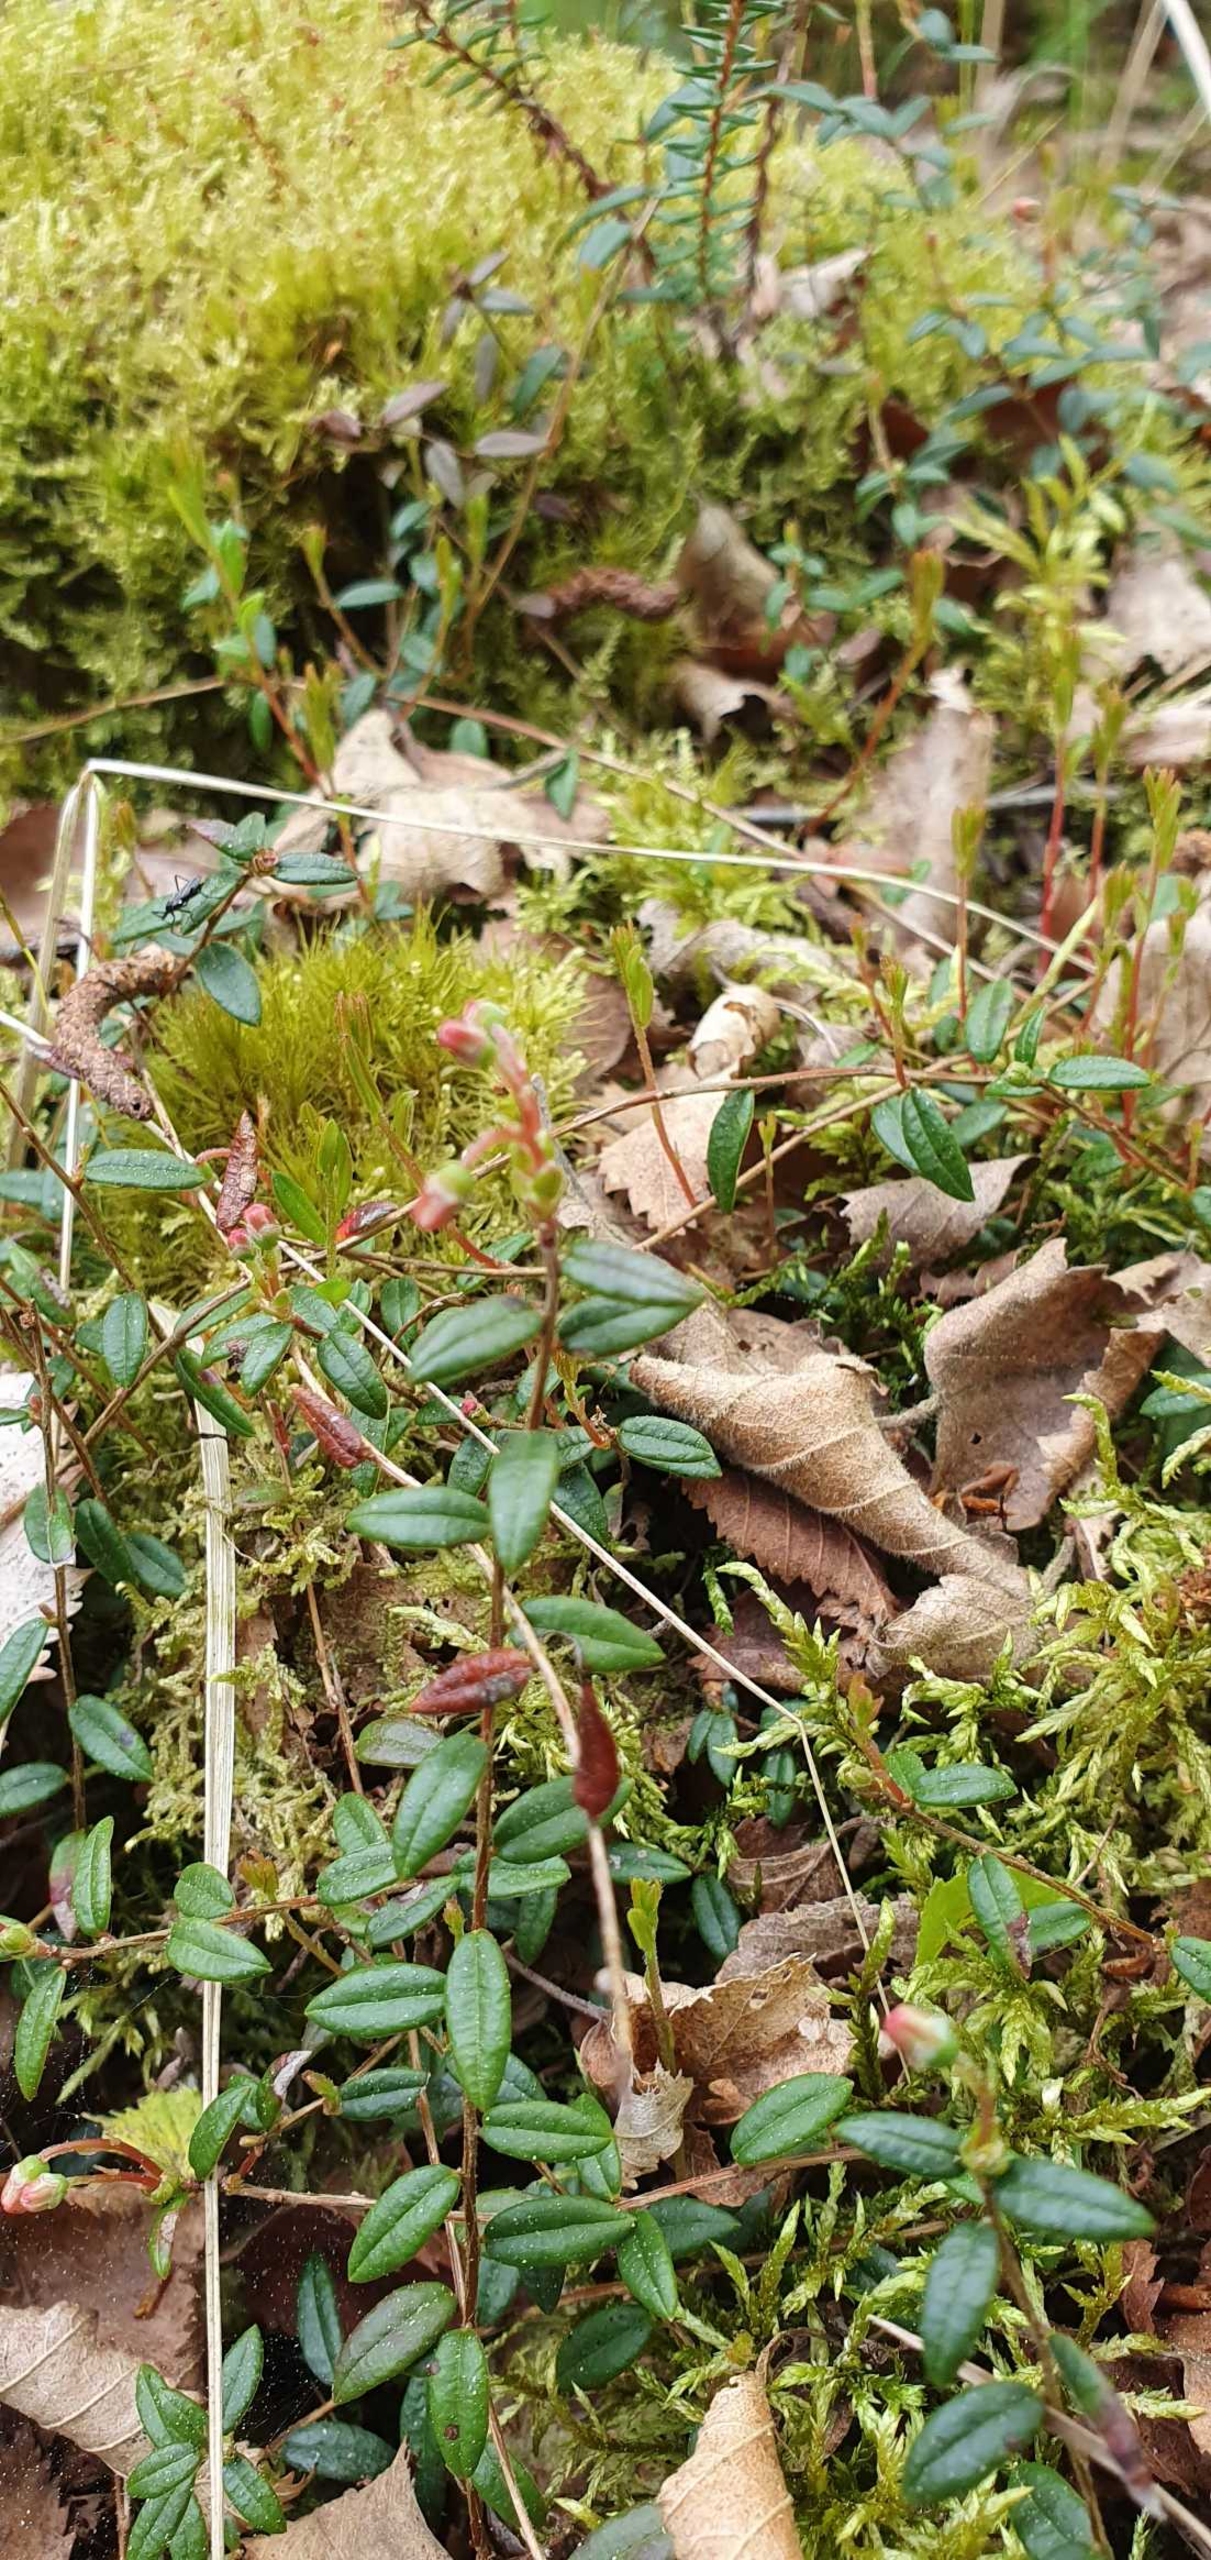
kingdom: Plantae
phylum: Tracheophyta
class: Magnoliopsida
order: Ericales
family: Ericaceae
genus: Vaccinium
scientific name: Vaccinium oxycoccos
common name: Tranebær
